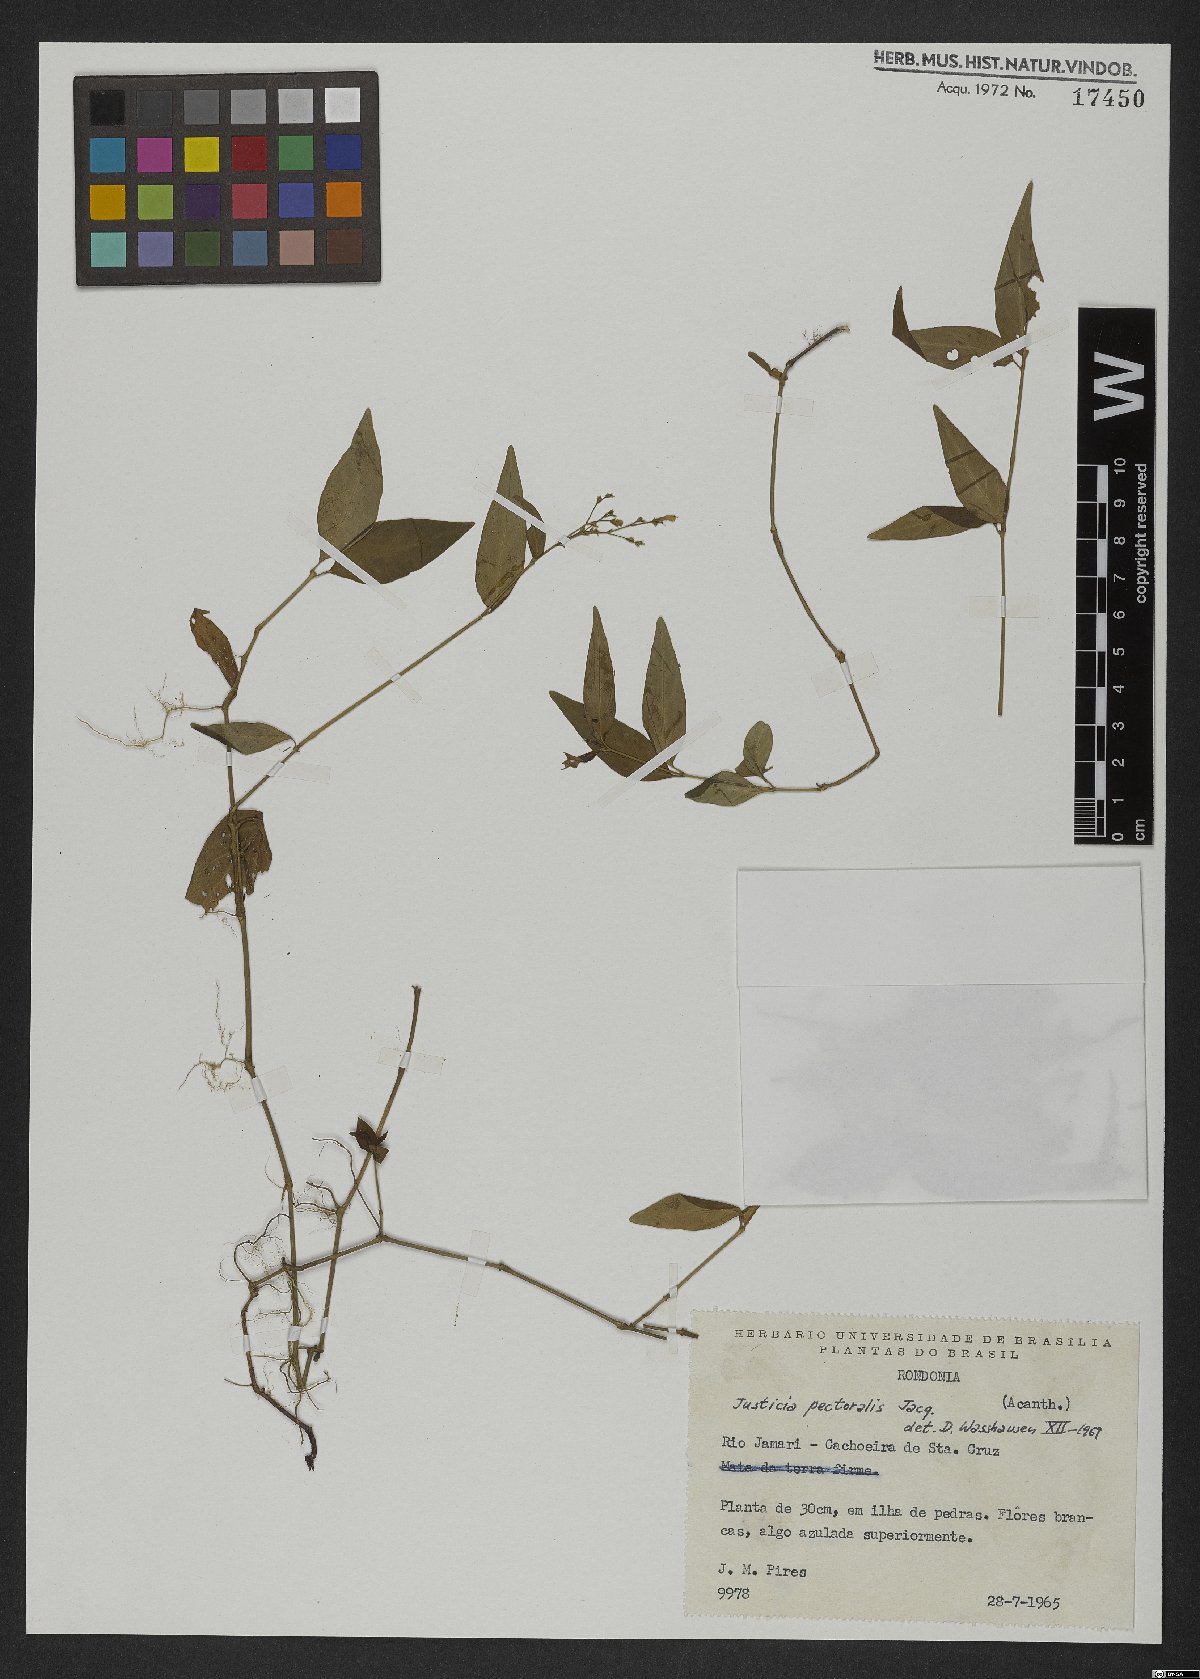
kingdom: Plantae
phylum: Tracheophyta
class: Magnoliopsida
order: Lamiales
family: Acanthaceae
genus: Dianthera
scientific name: Dianthera pectoralis
